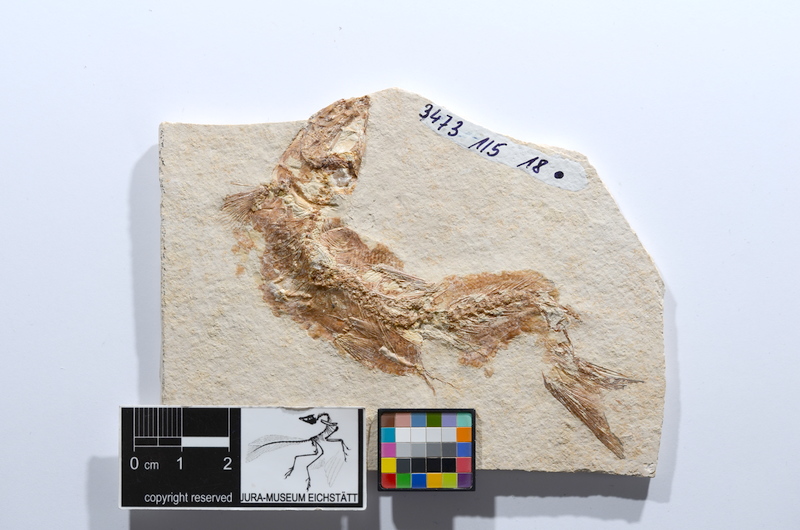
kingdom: Animalia
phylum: Chordata
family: Ascalaboidae
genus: Tharsis
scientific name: Tharsis dubius
